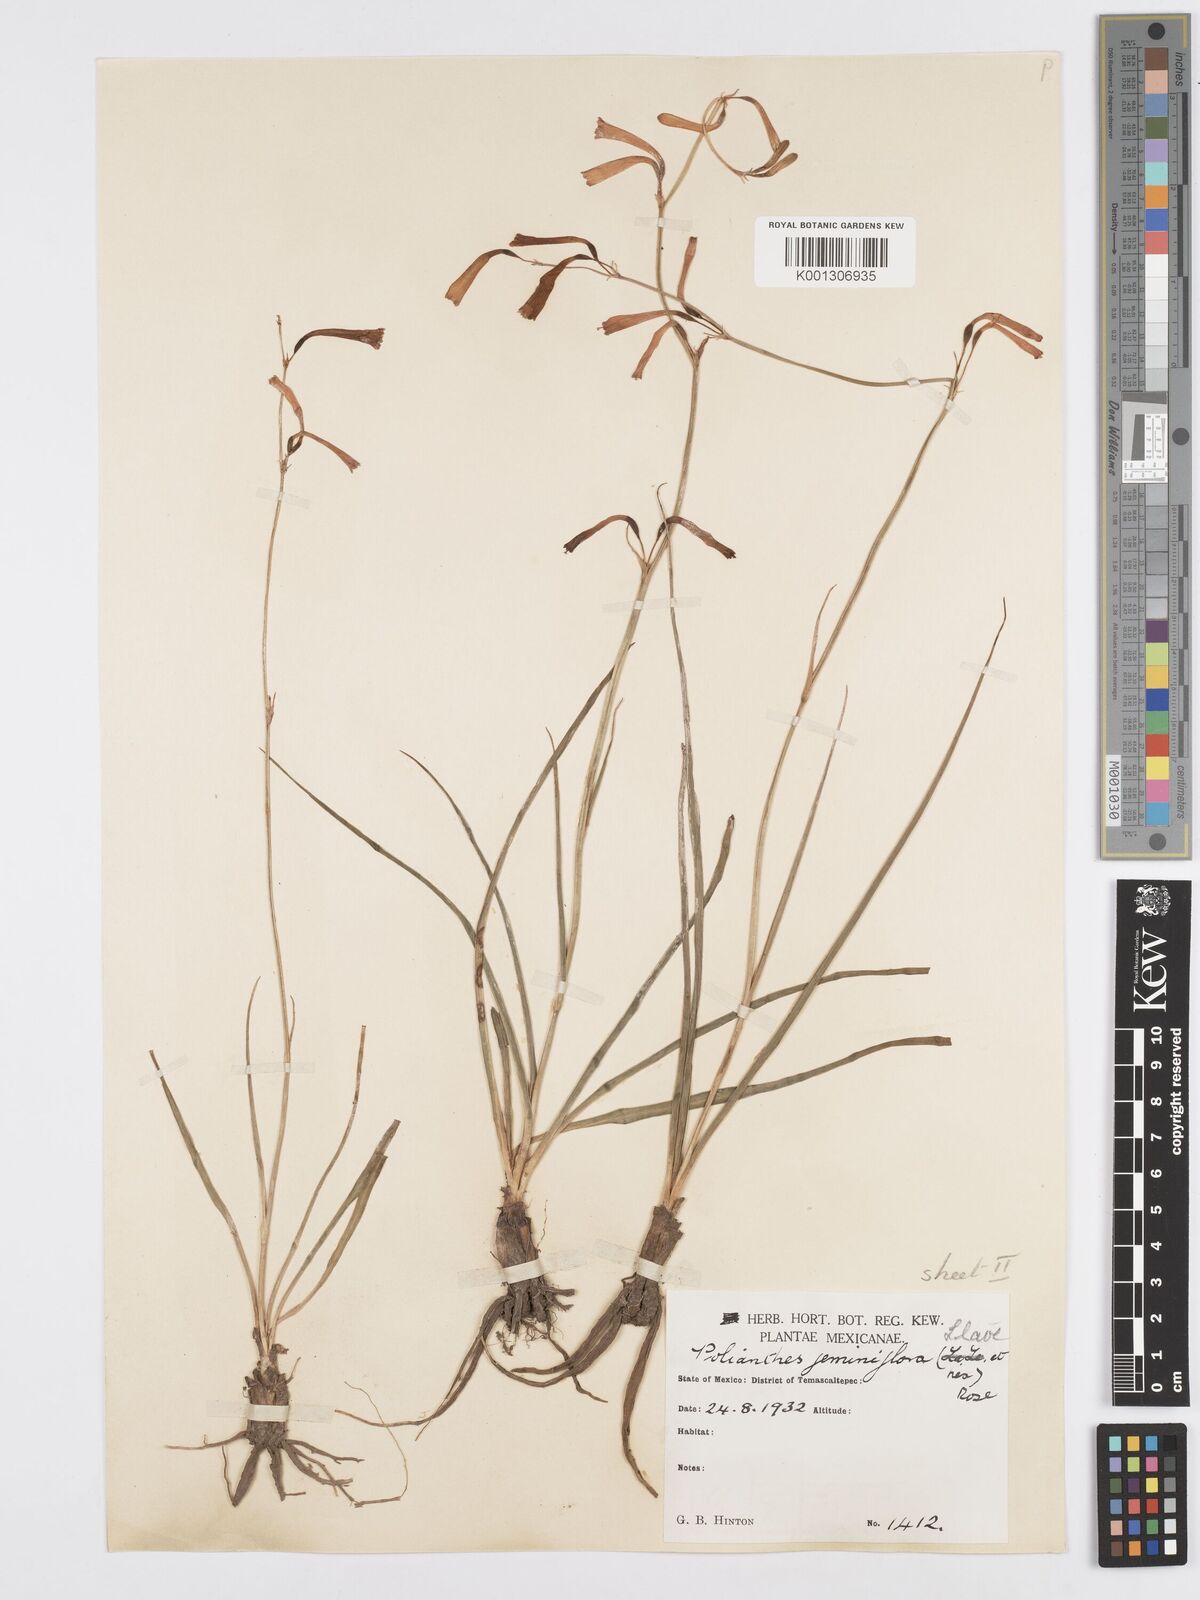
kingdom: Plantae
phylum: Tracheophyta
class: Liliopsida
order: Asparagales
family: Asparagaceae
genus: Agave
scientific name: Agave coetocapnia
